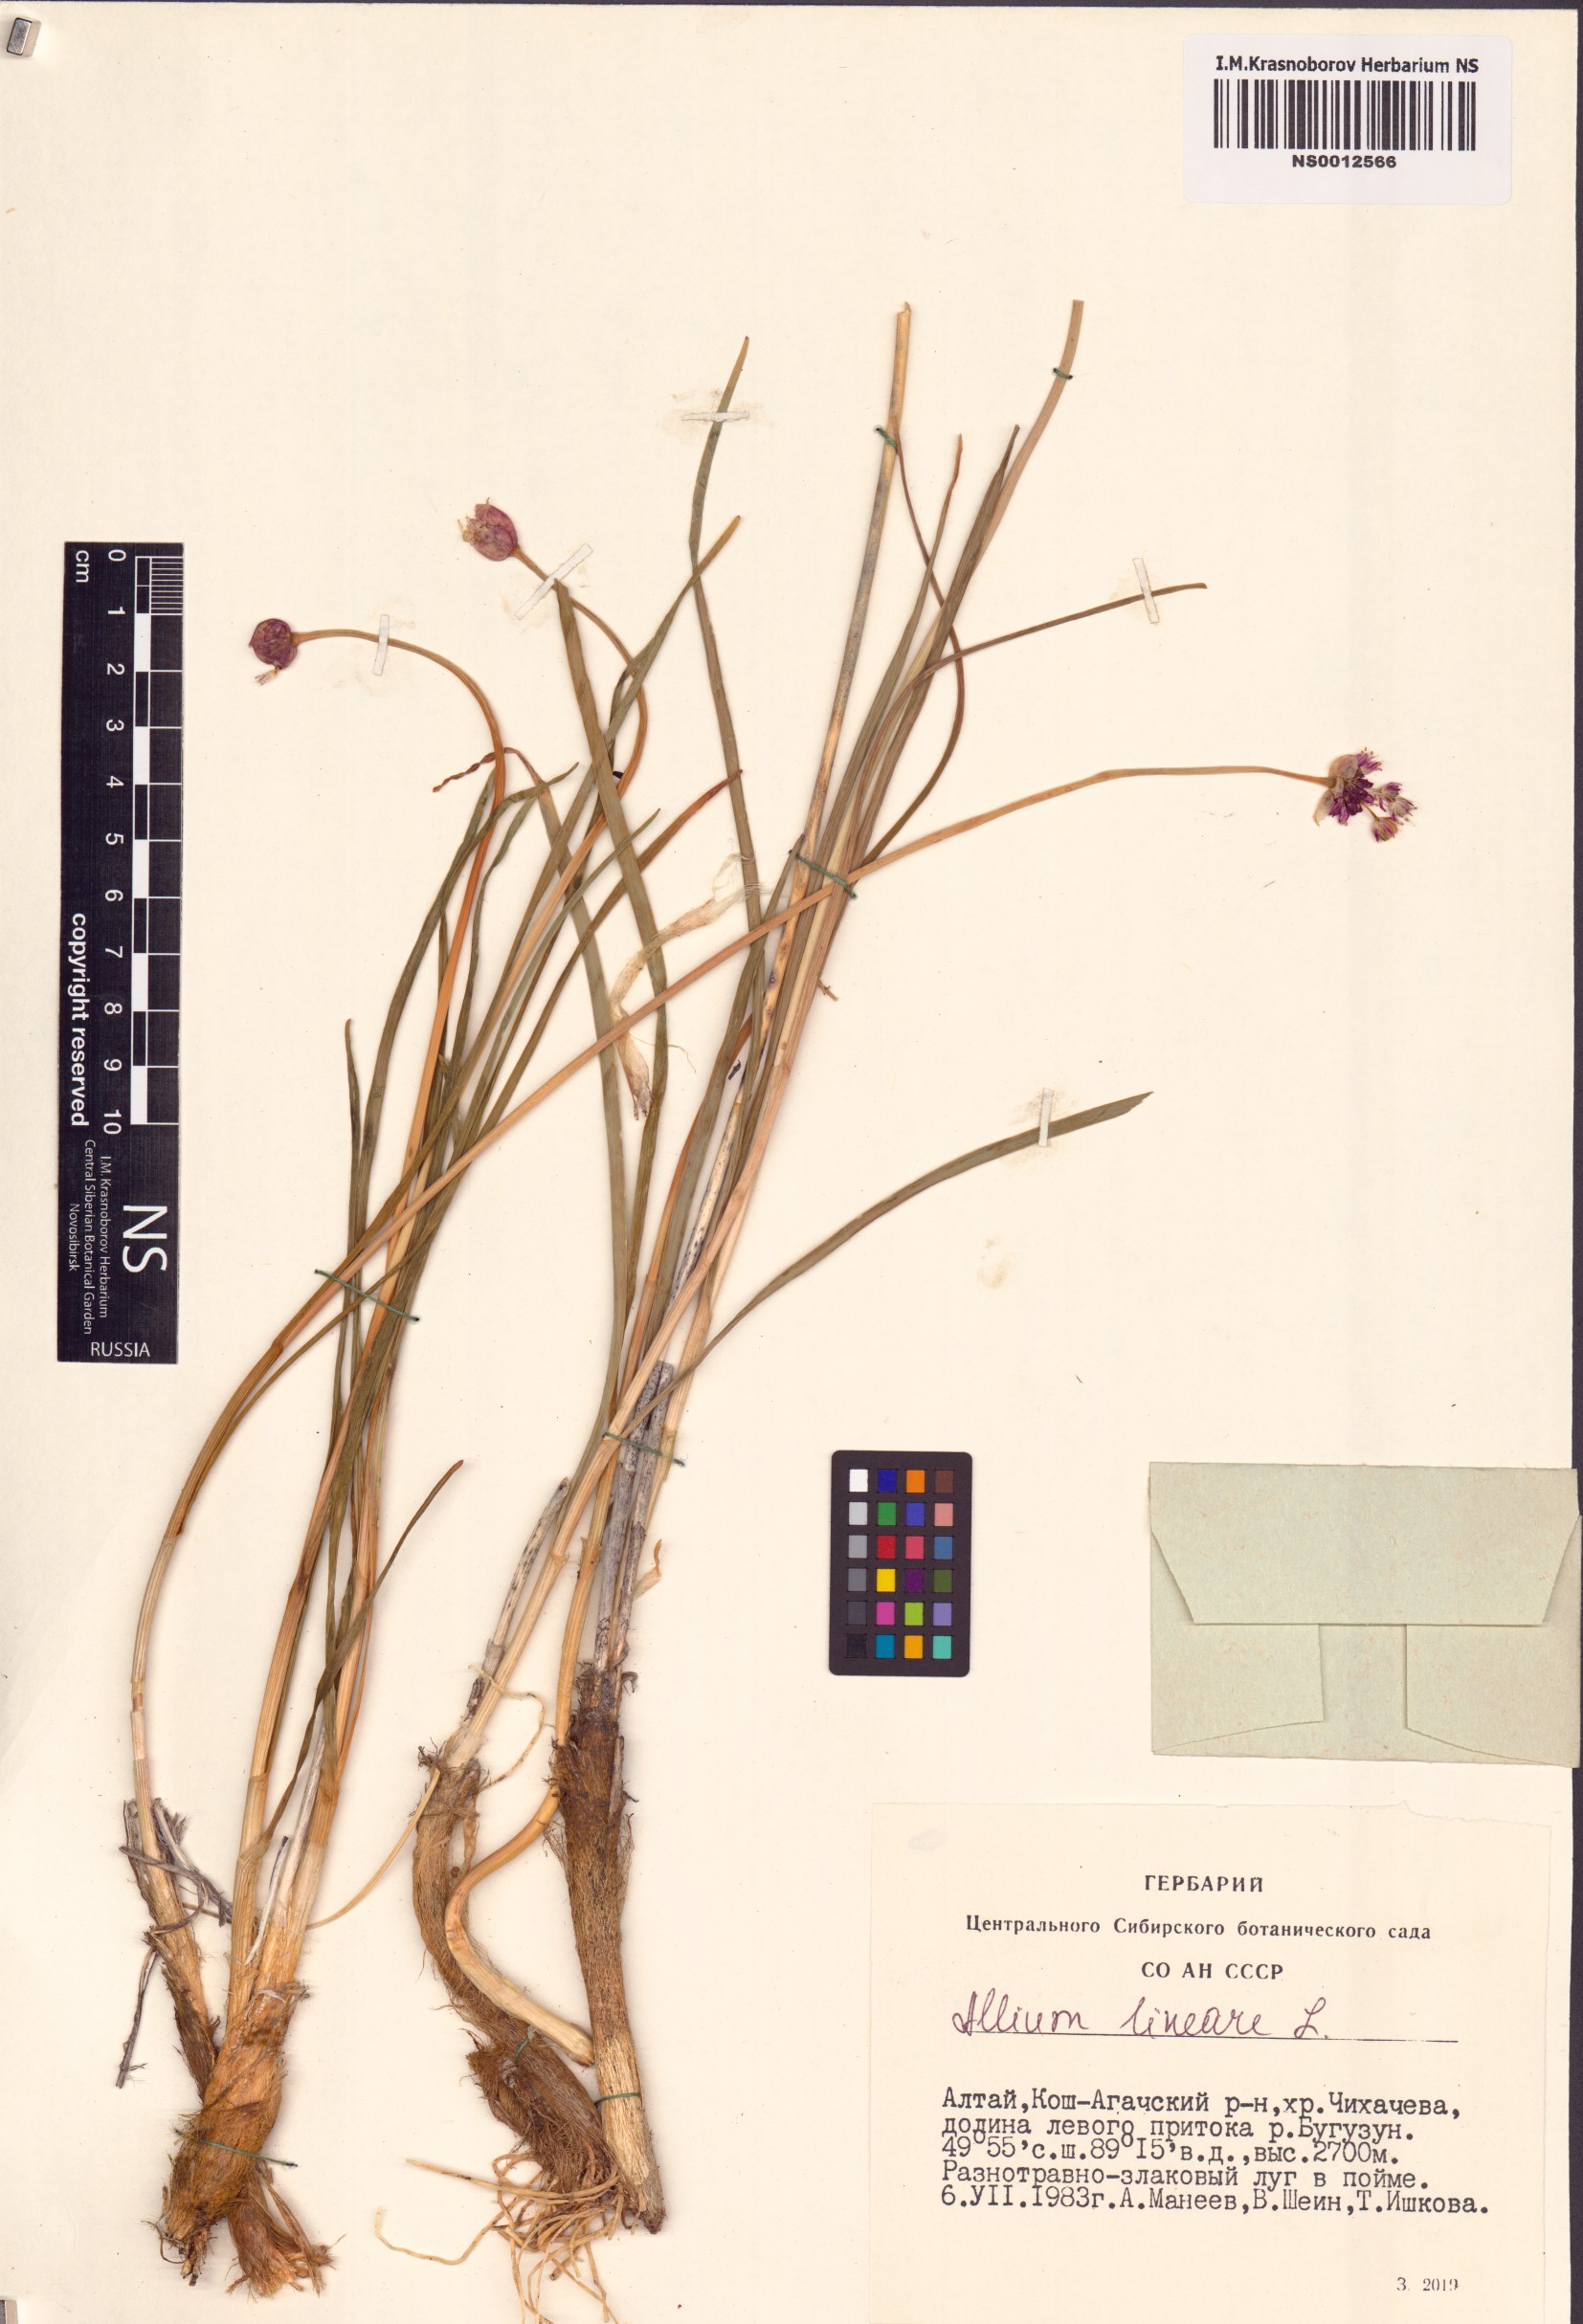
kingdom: Plantae
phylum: Tracheophyta
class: Liliopsida
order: Asparagales
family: Amaryllidaceae
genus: Allium
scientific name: Allium lineare
